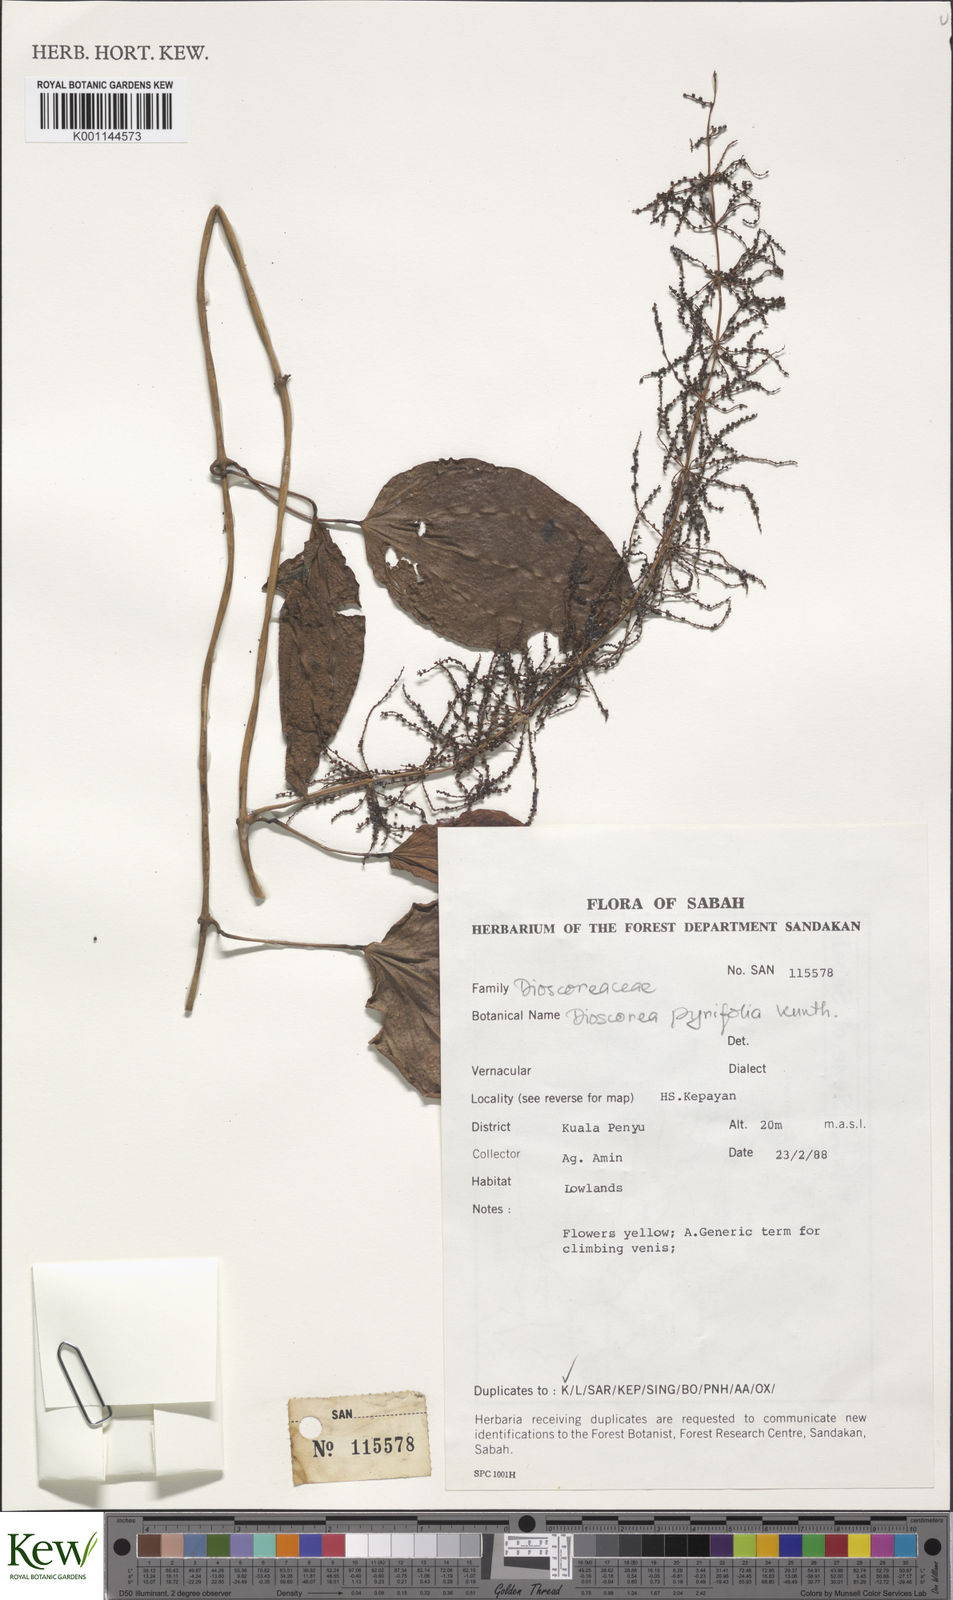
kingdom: Plantae
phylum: Tracheophyta
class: Liliopsida
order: Dioscoreales
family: Dioscoreaceae
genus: Dioscorea
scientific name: Dioscorea pyrifolia
